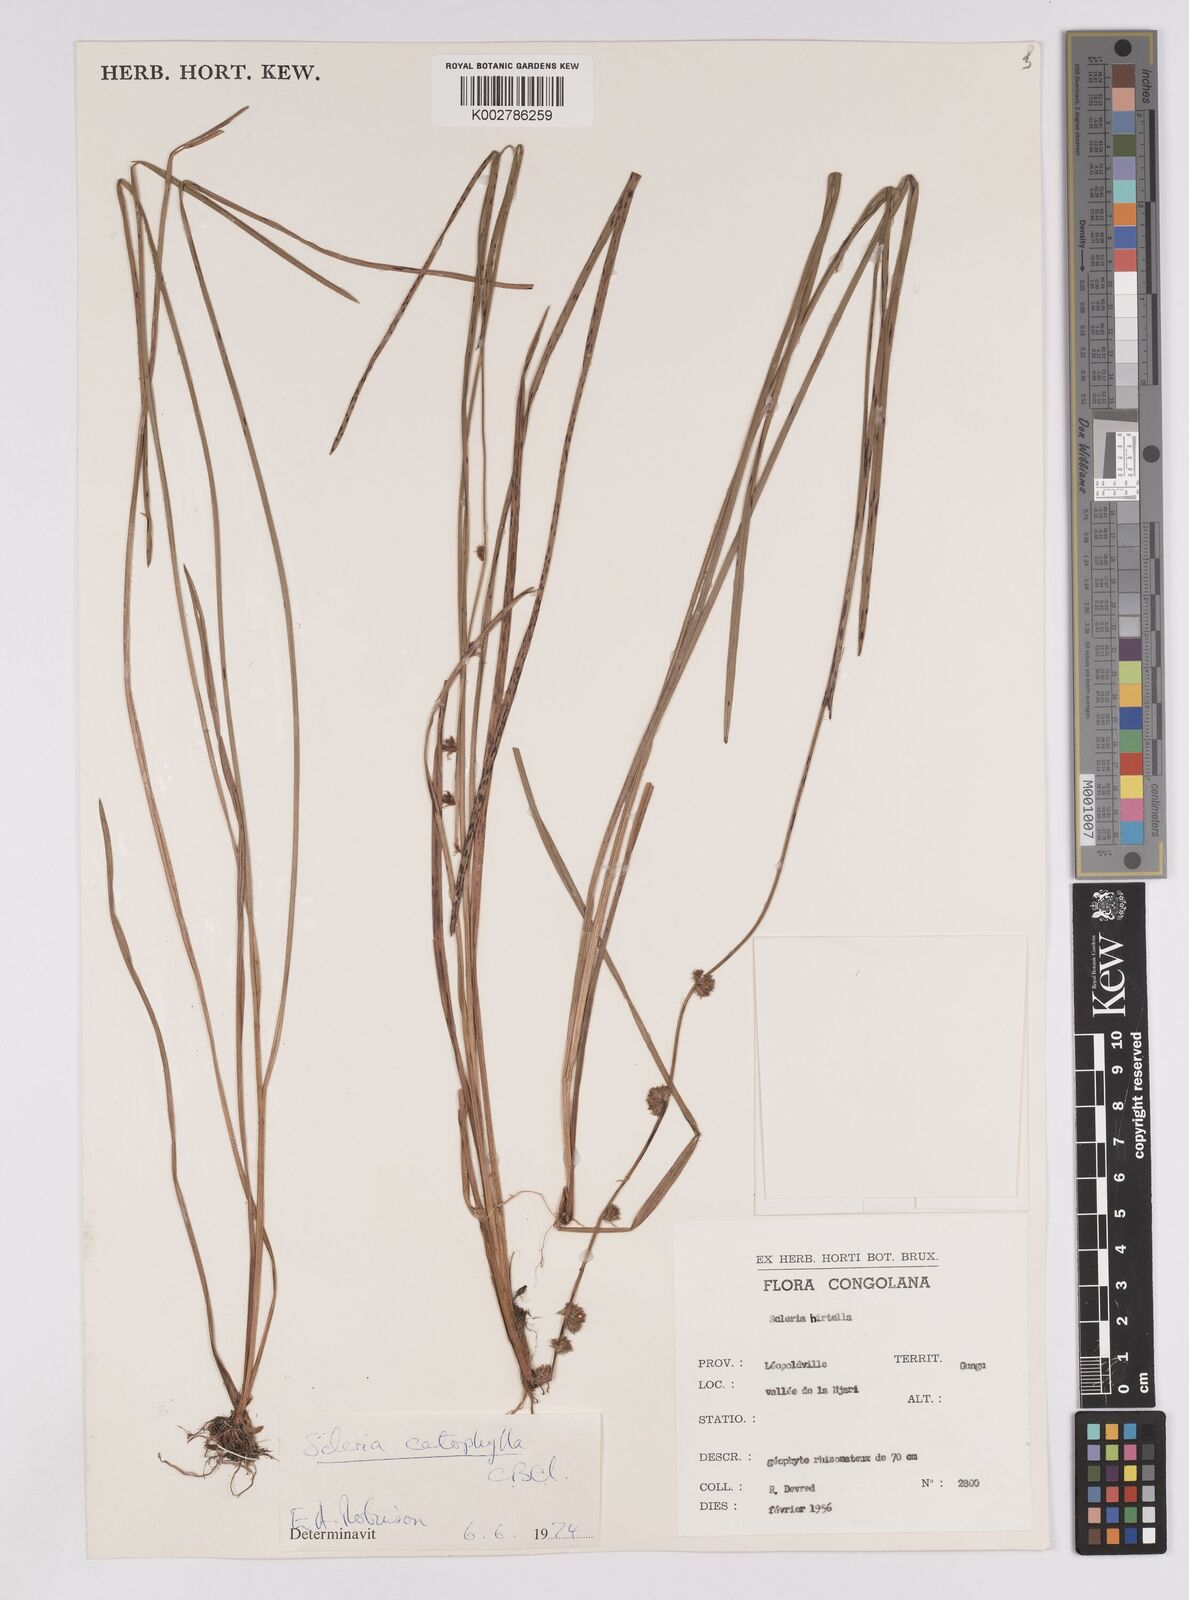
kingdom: Plantae
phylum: Tracheophyta
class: Liliopsida
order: Poales
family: Cyperaceae
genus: Scleria
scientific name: Scleria catophylla
